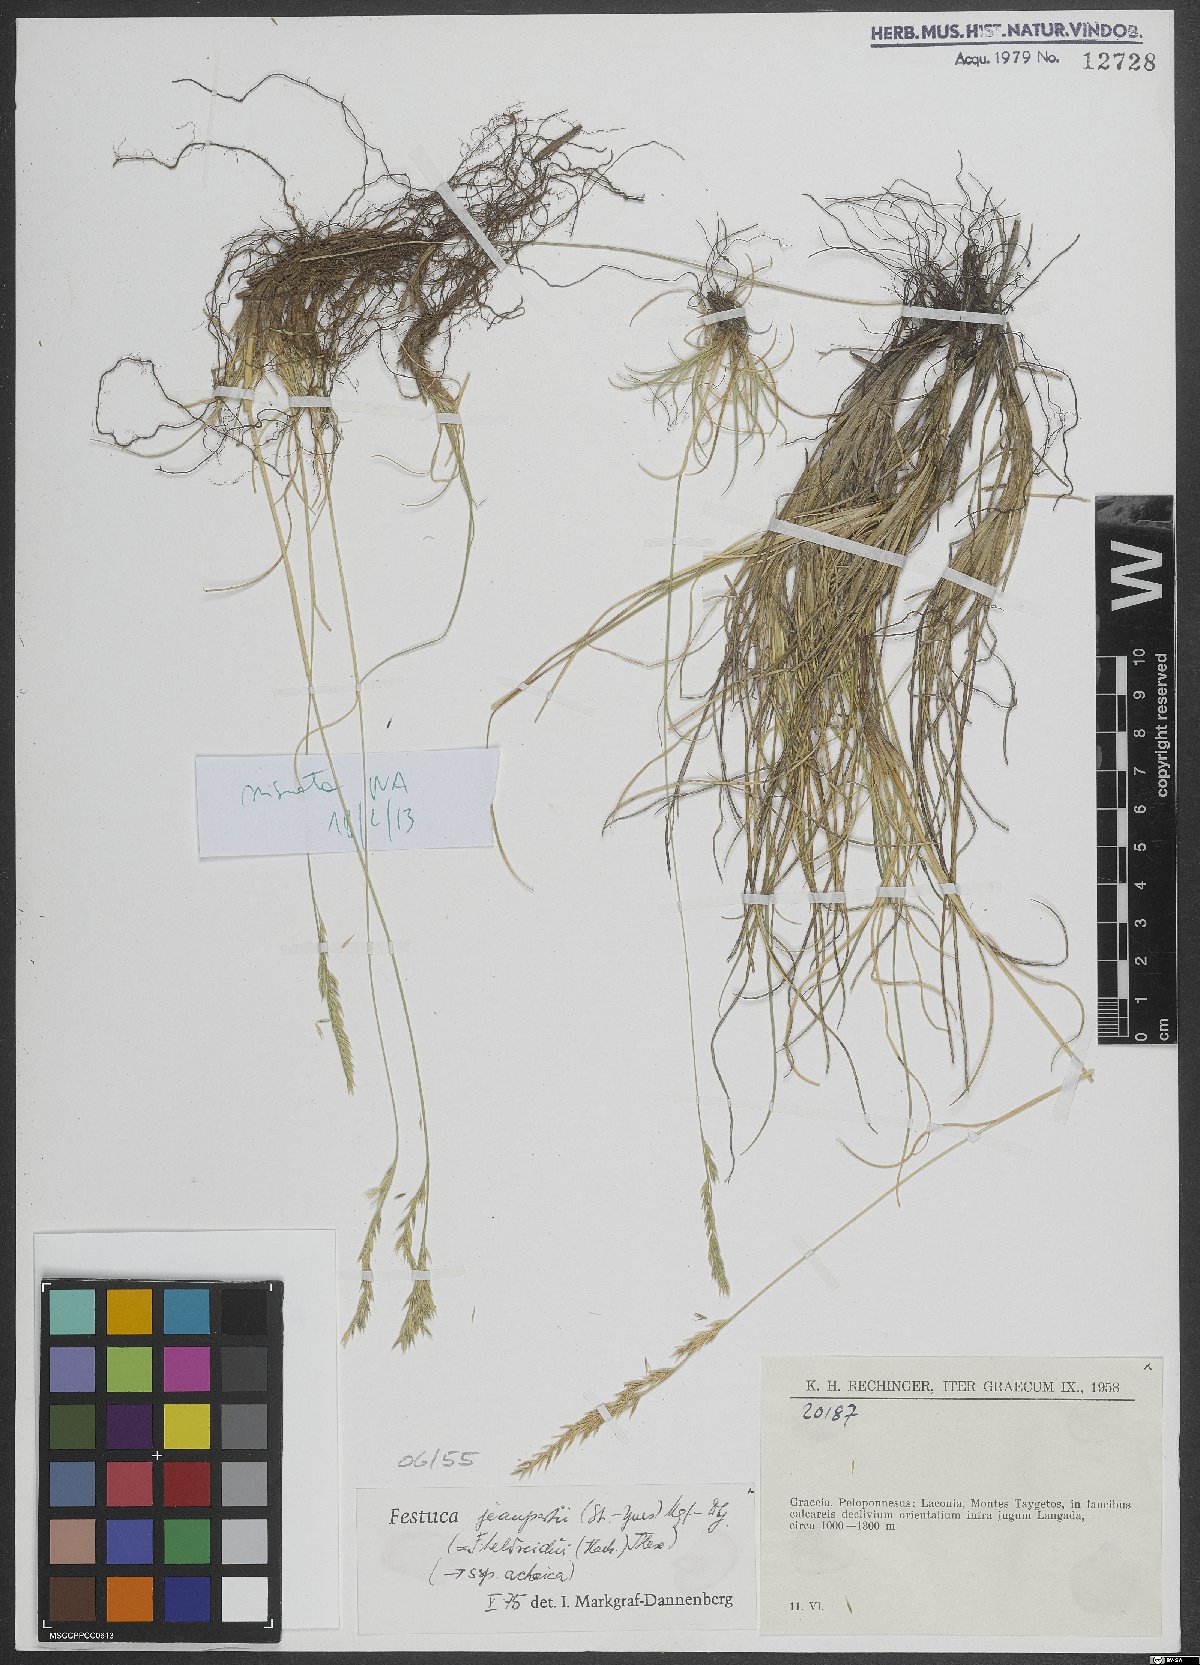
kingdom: Plantae
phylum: Tracheophyta
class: Liliopsida
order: Poales
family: Poaceae
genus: Festuca
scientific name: Festuca jeanpertii
